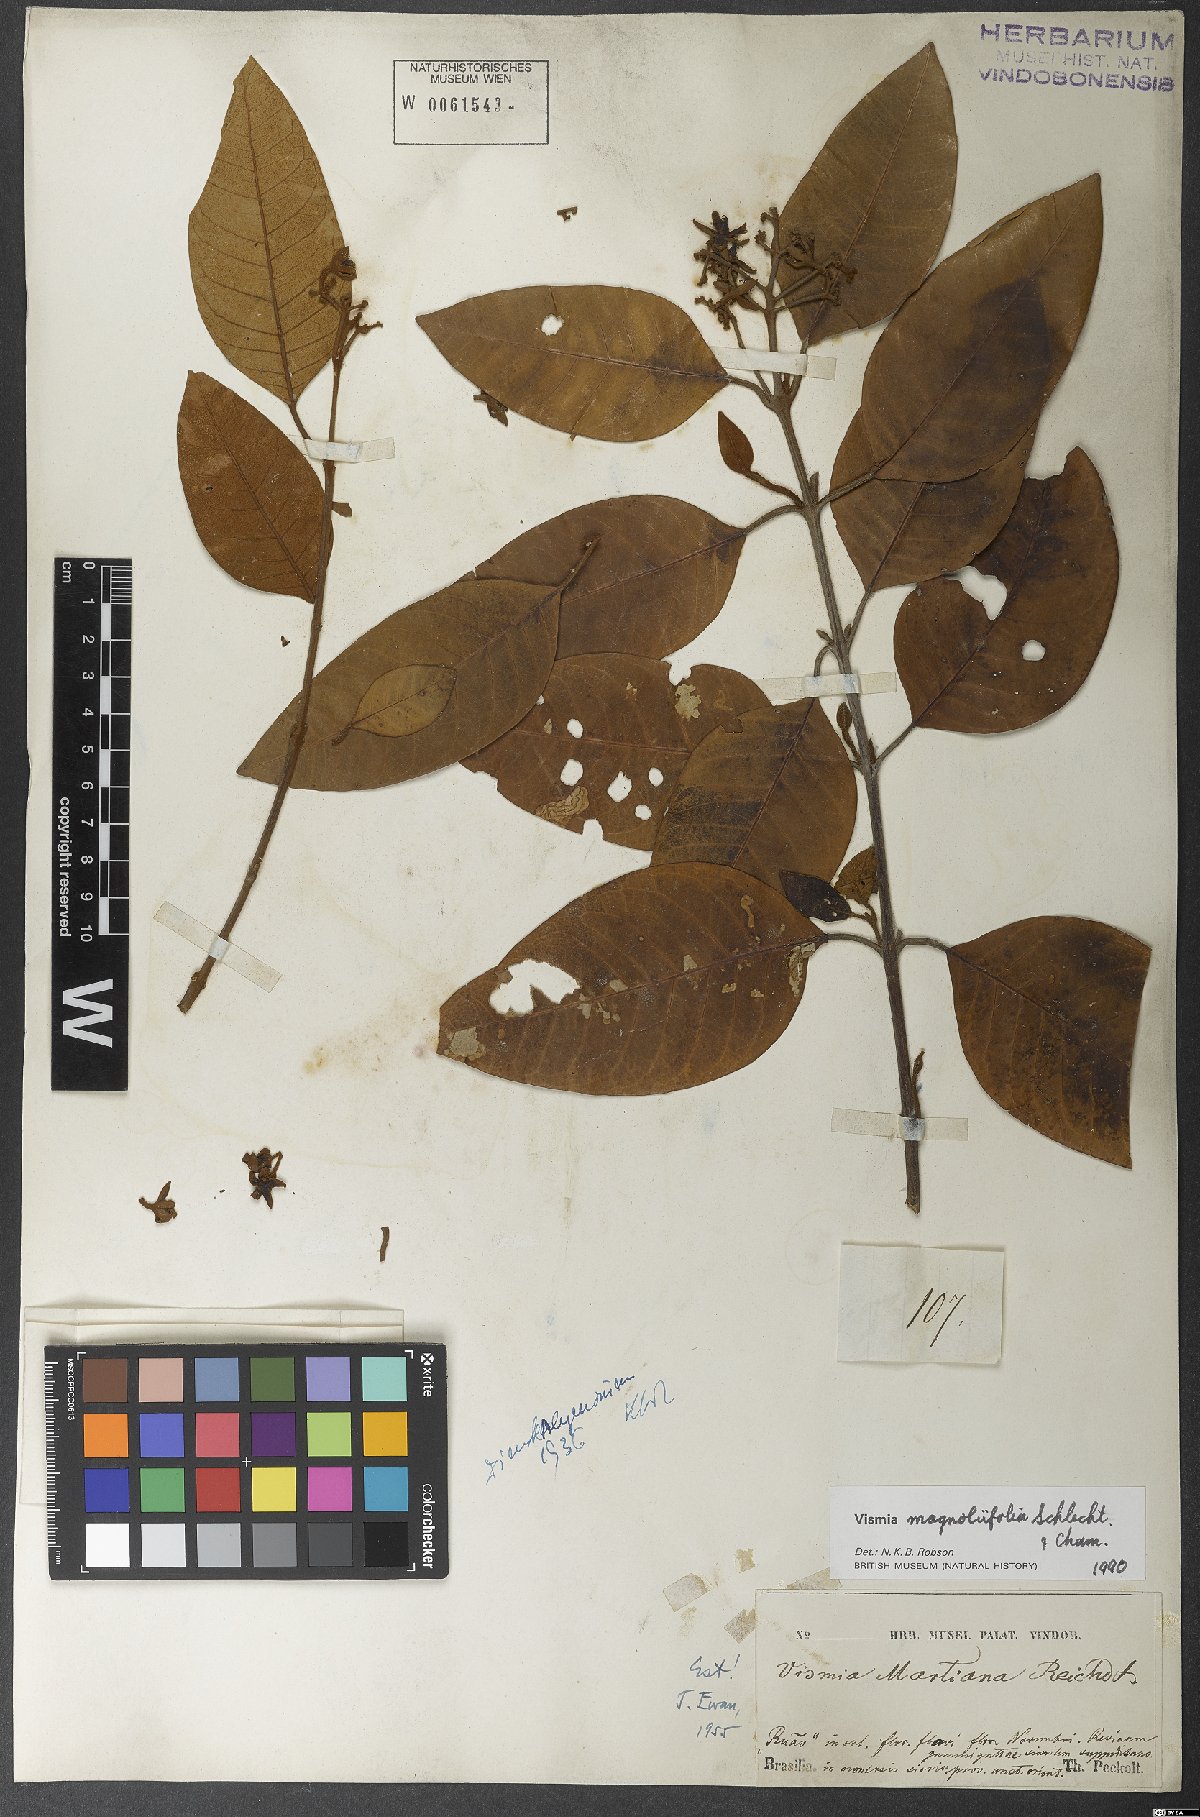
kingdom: Plantae
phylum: Tracheophyta
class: Magnoliopsida
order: Malpighiales
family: Hypericaceae
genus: Vismia
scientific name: Vismia magnoliifolia
